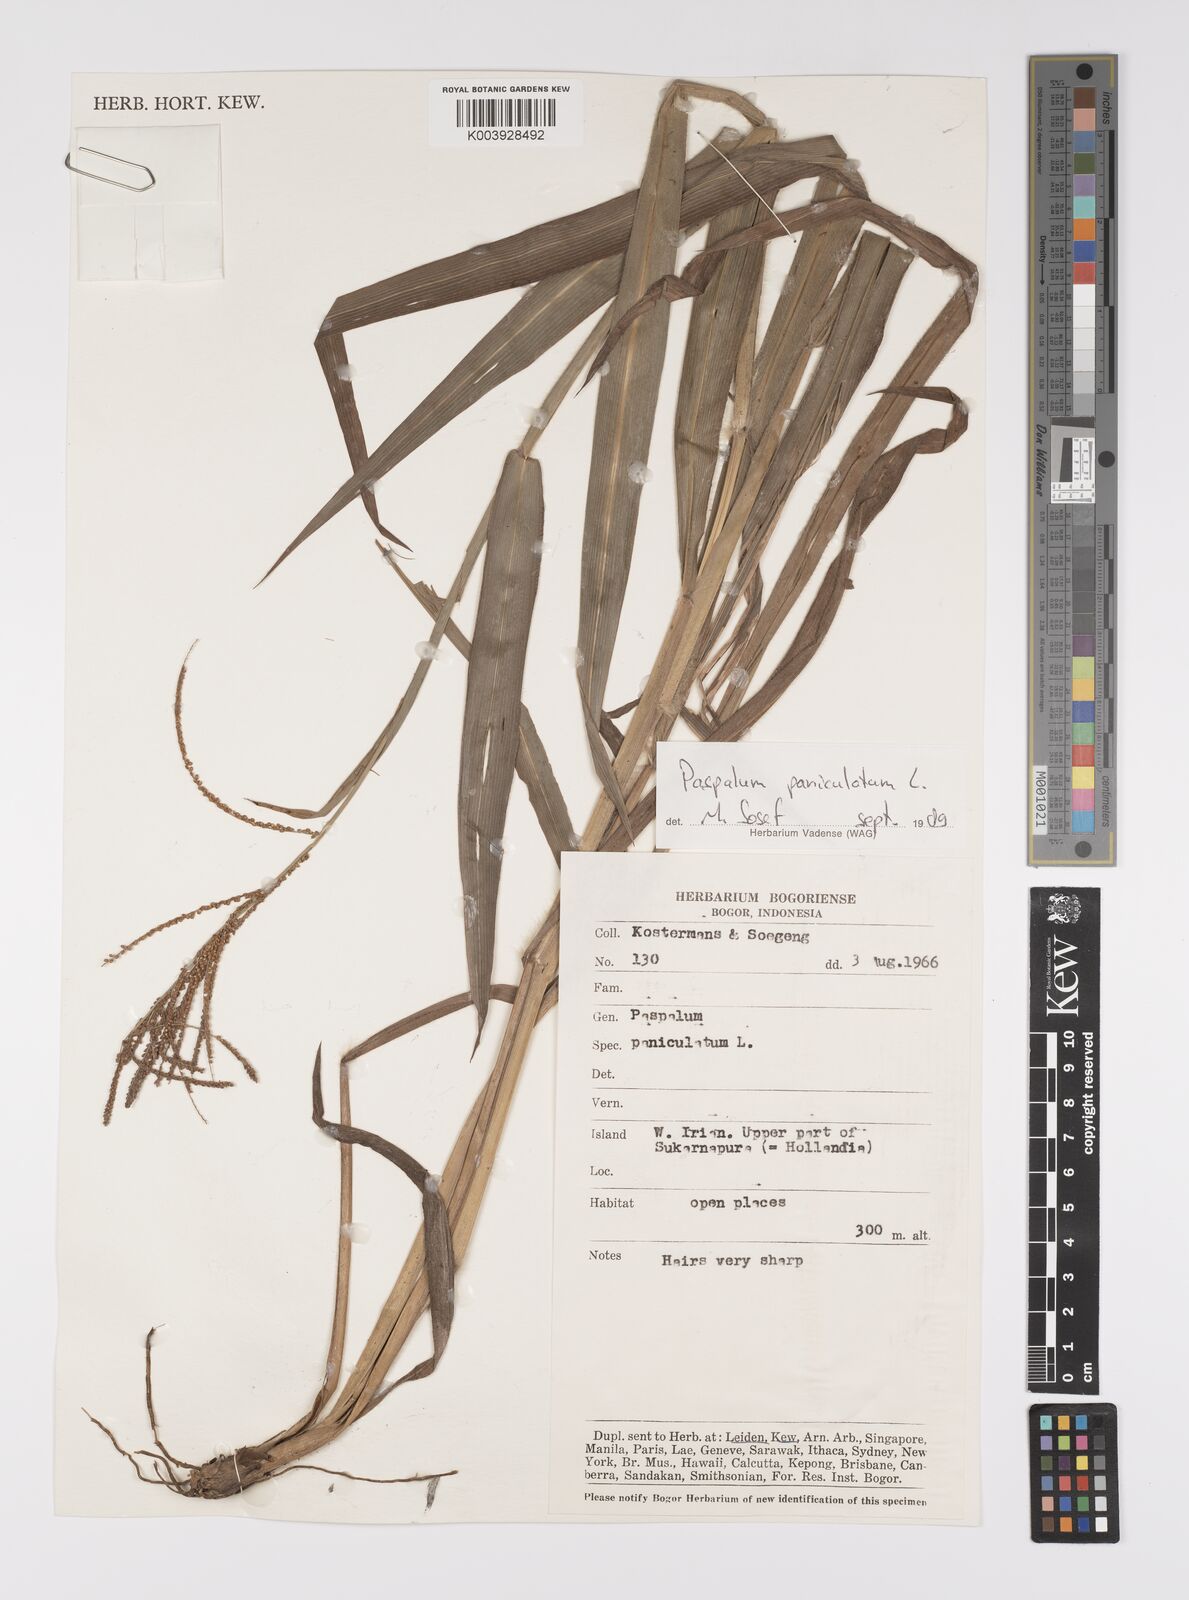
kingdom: Plantae
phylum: Tracheophyta
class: Liliopsida
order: Poales
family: Poaceae
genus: Paspalum
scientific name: Paspalum paniculatum
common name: Arrocillo
